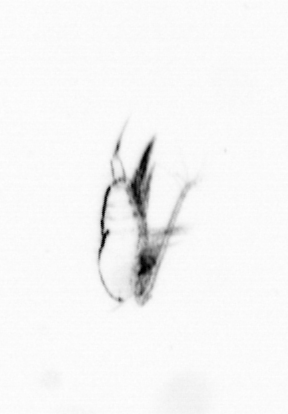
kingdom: Animalia
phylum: Arthropoda
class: Copepoda
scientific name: Copepoda
